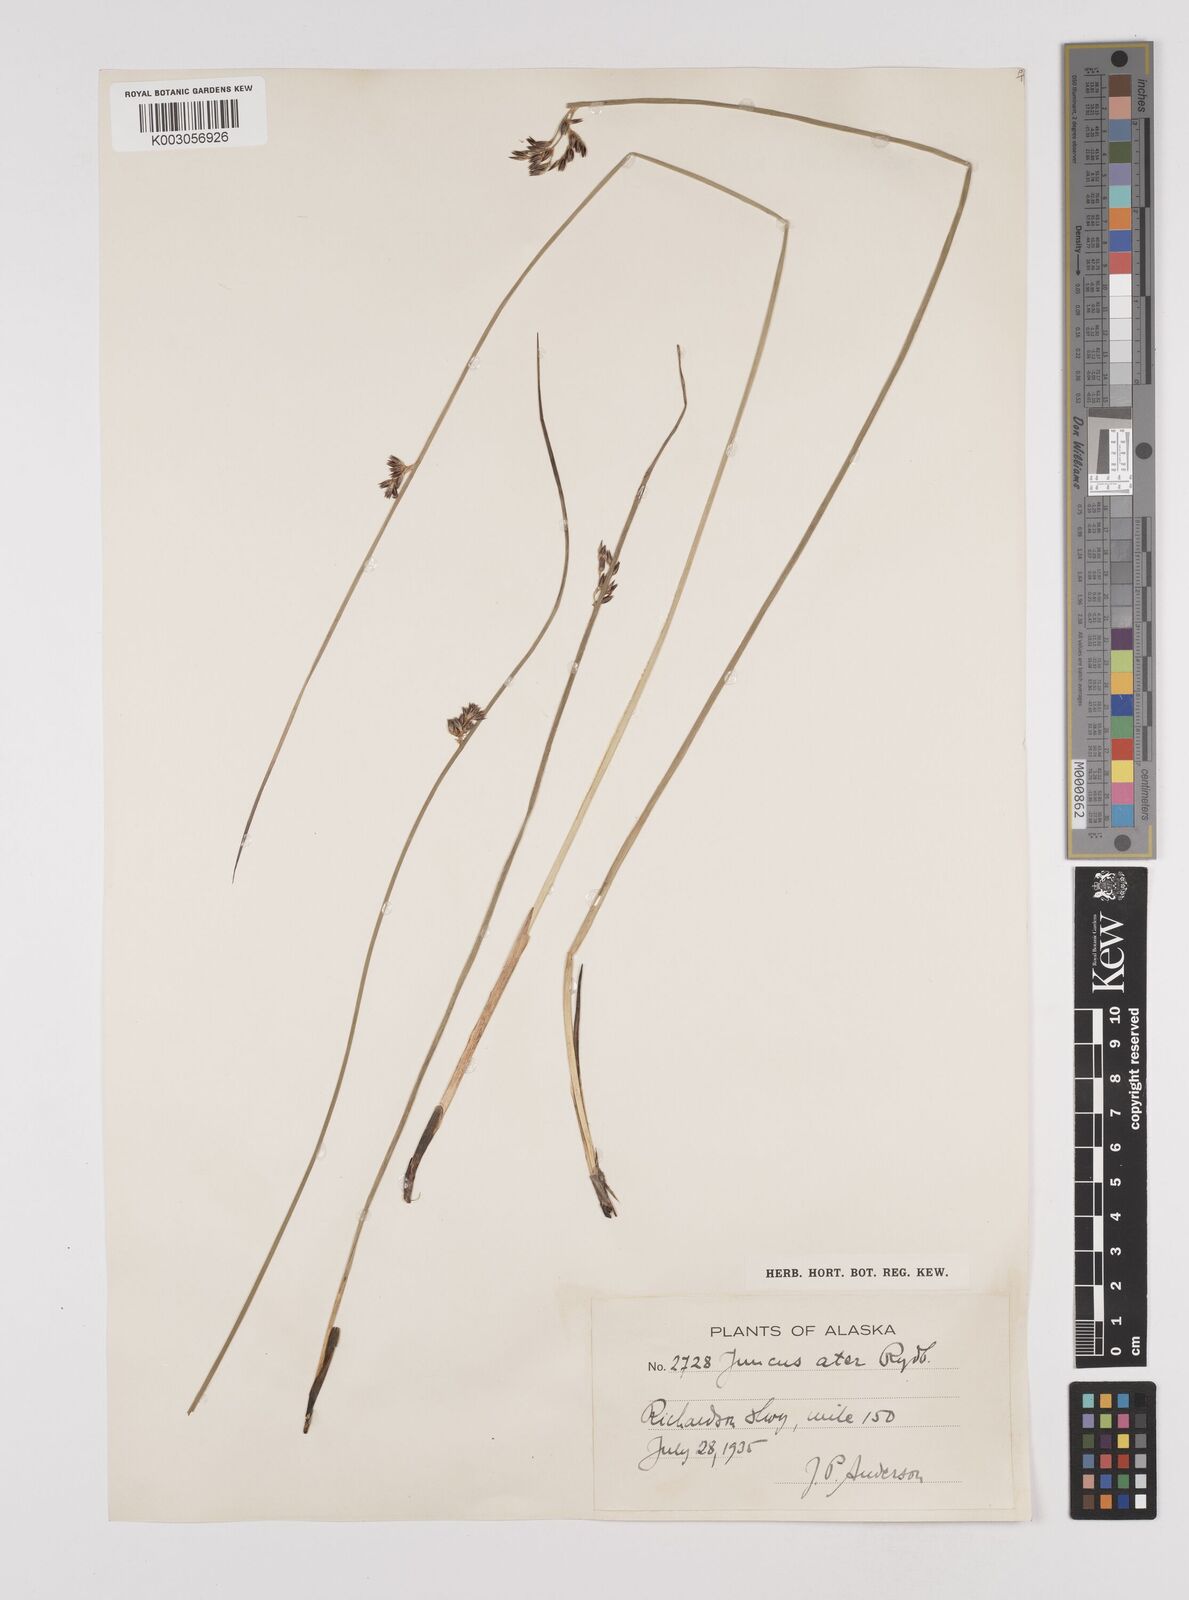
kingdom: Plantae
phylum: Tracheophyta
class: Liliopsida
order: Poales
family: Juncaceae
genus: Juncus
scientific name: Juncus balticus
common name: Baltic rush
